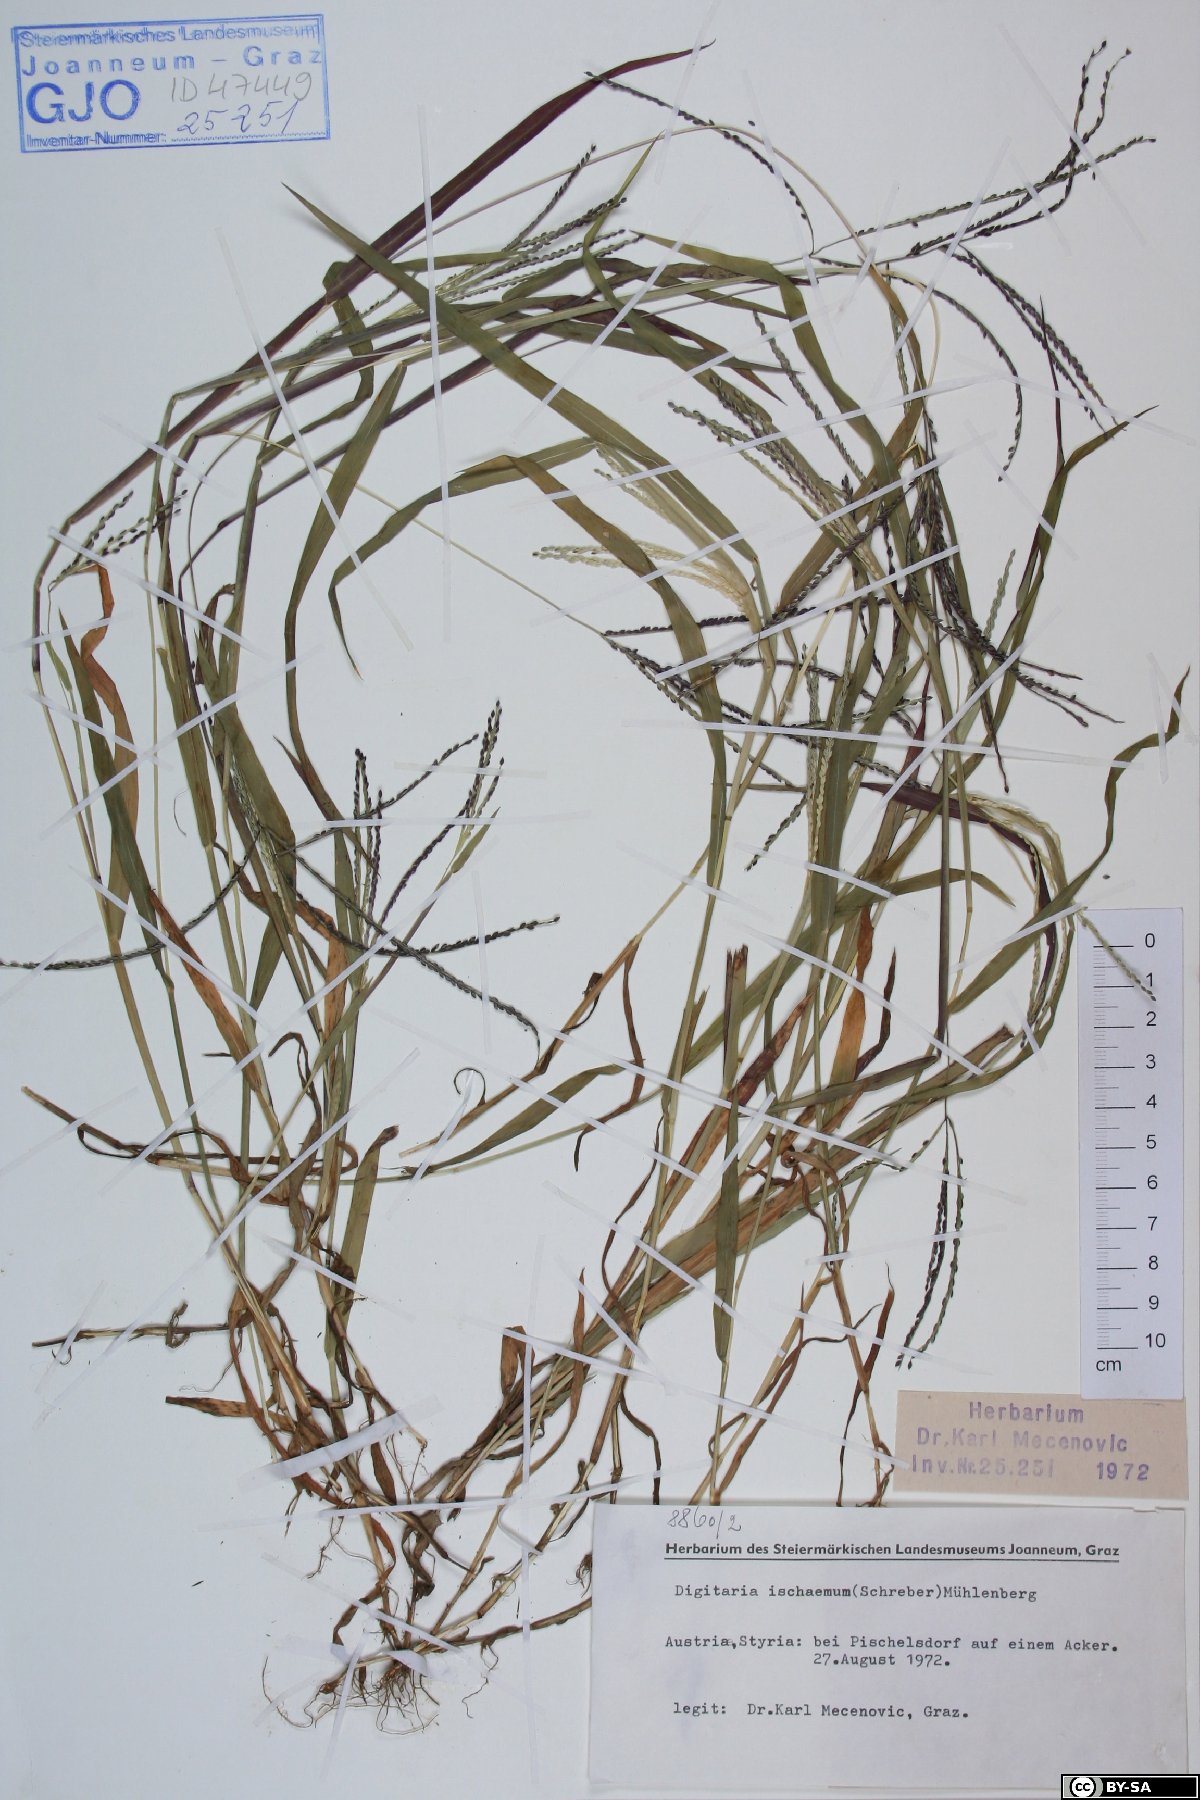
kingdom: Plantae
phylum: Tracheophyta
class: Liliopsida
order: Poales
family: Poaceae
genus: Digitaria
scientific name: Digitaria ischaemum
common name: Smooth crabgrass
